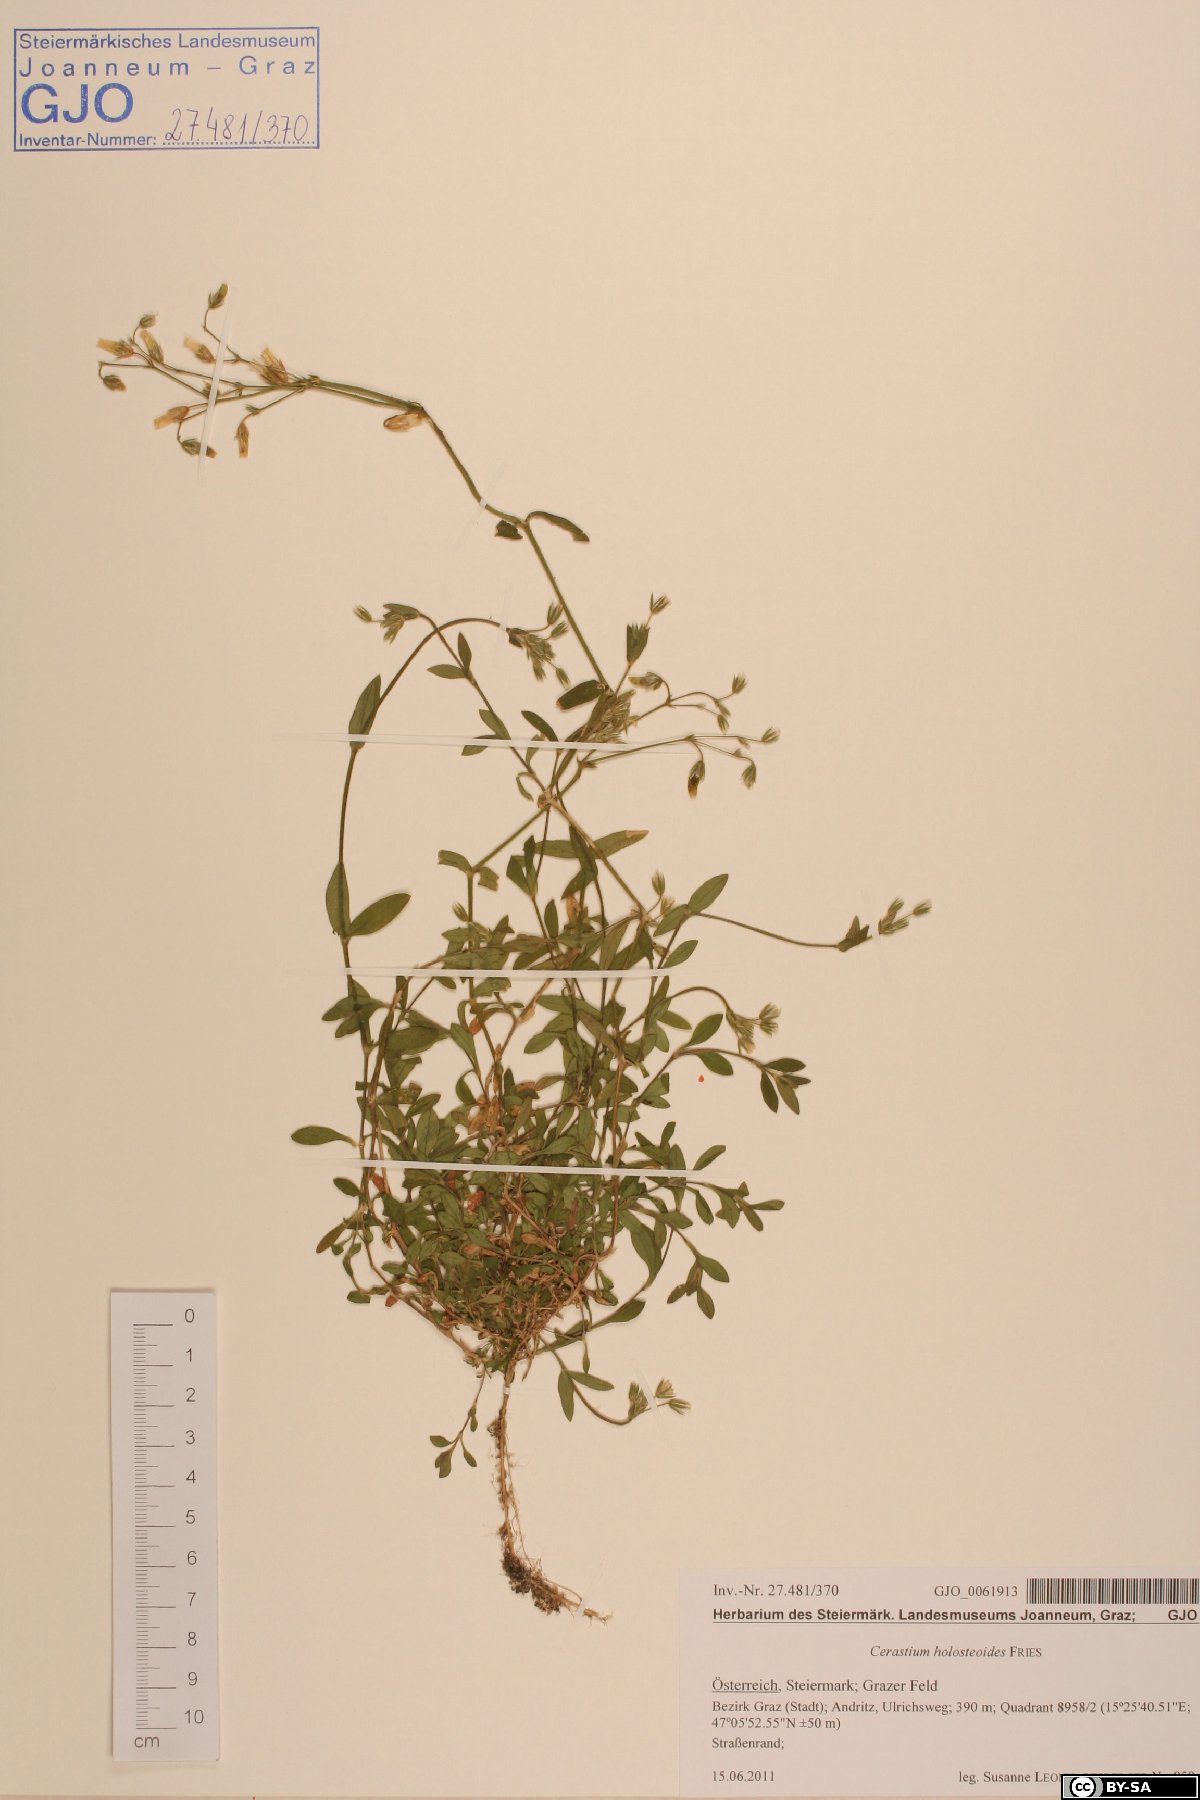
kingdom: Plantae
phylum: Tracheophyta
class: Magnoliopsida
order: Caryophyllales
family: Caryophyllaceae
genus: Cerastium
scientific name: Cerastium holosteoides
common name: Big chickweed
